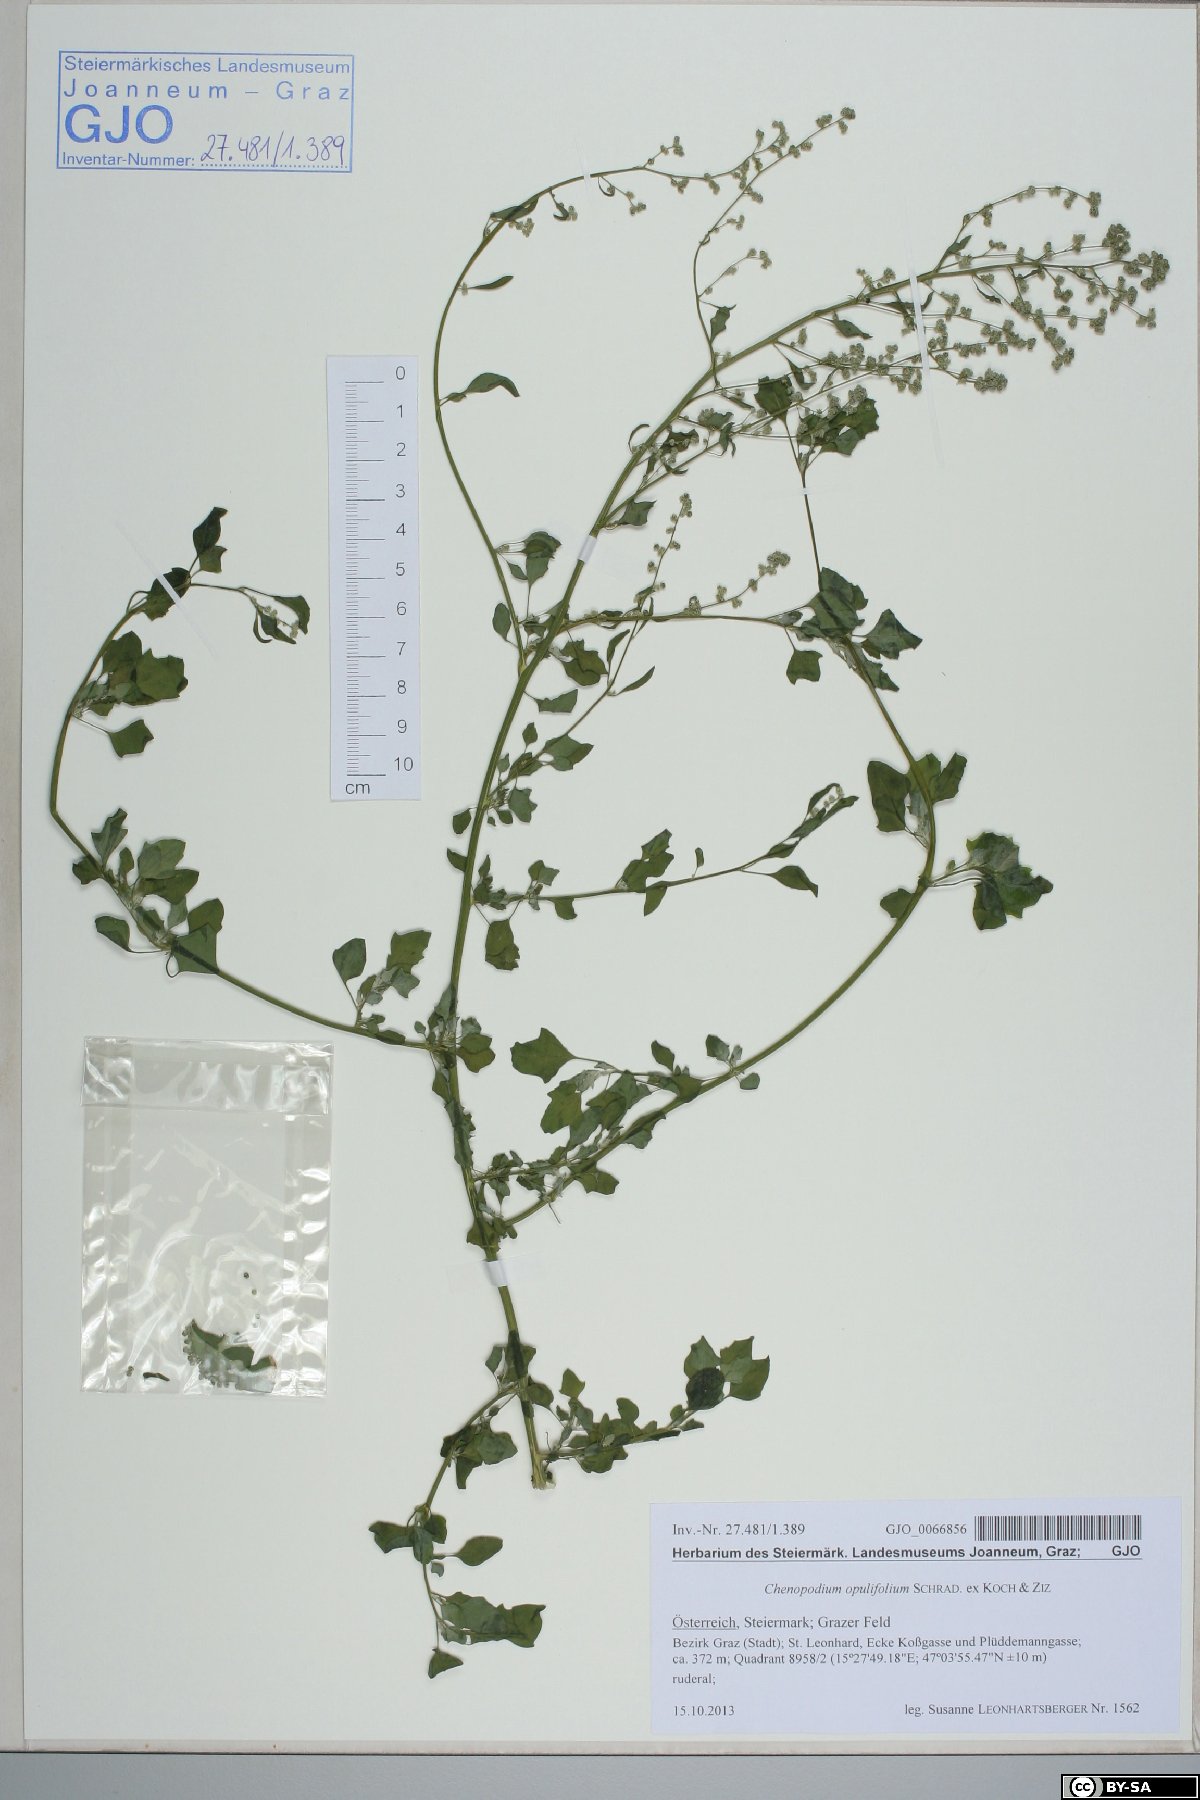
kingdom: Plantae
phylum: Tracheophyta
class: Magnoliopsida
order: Caryophyllales
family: Amaranthaceae
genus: Chenopodium
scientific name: Chenopodium opulifolium
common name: Grey goosefoot
